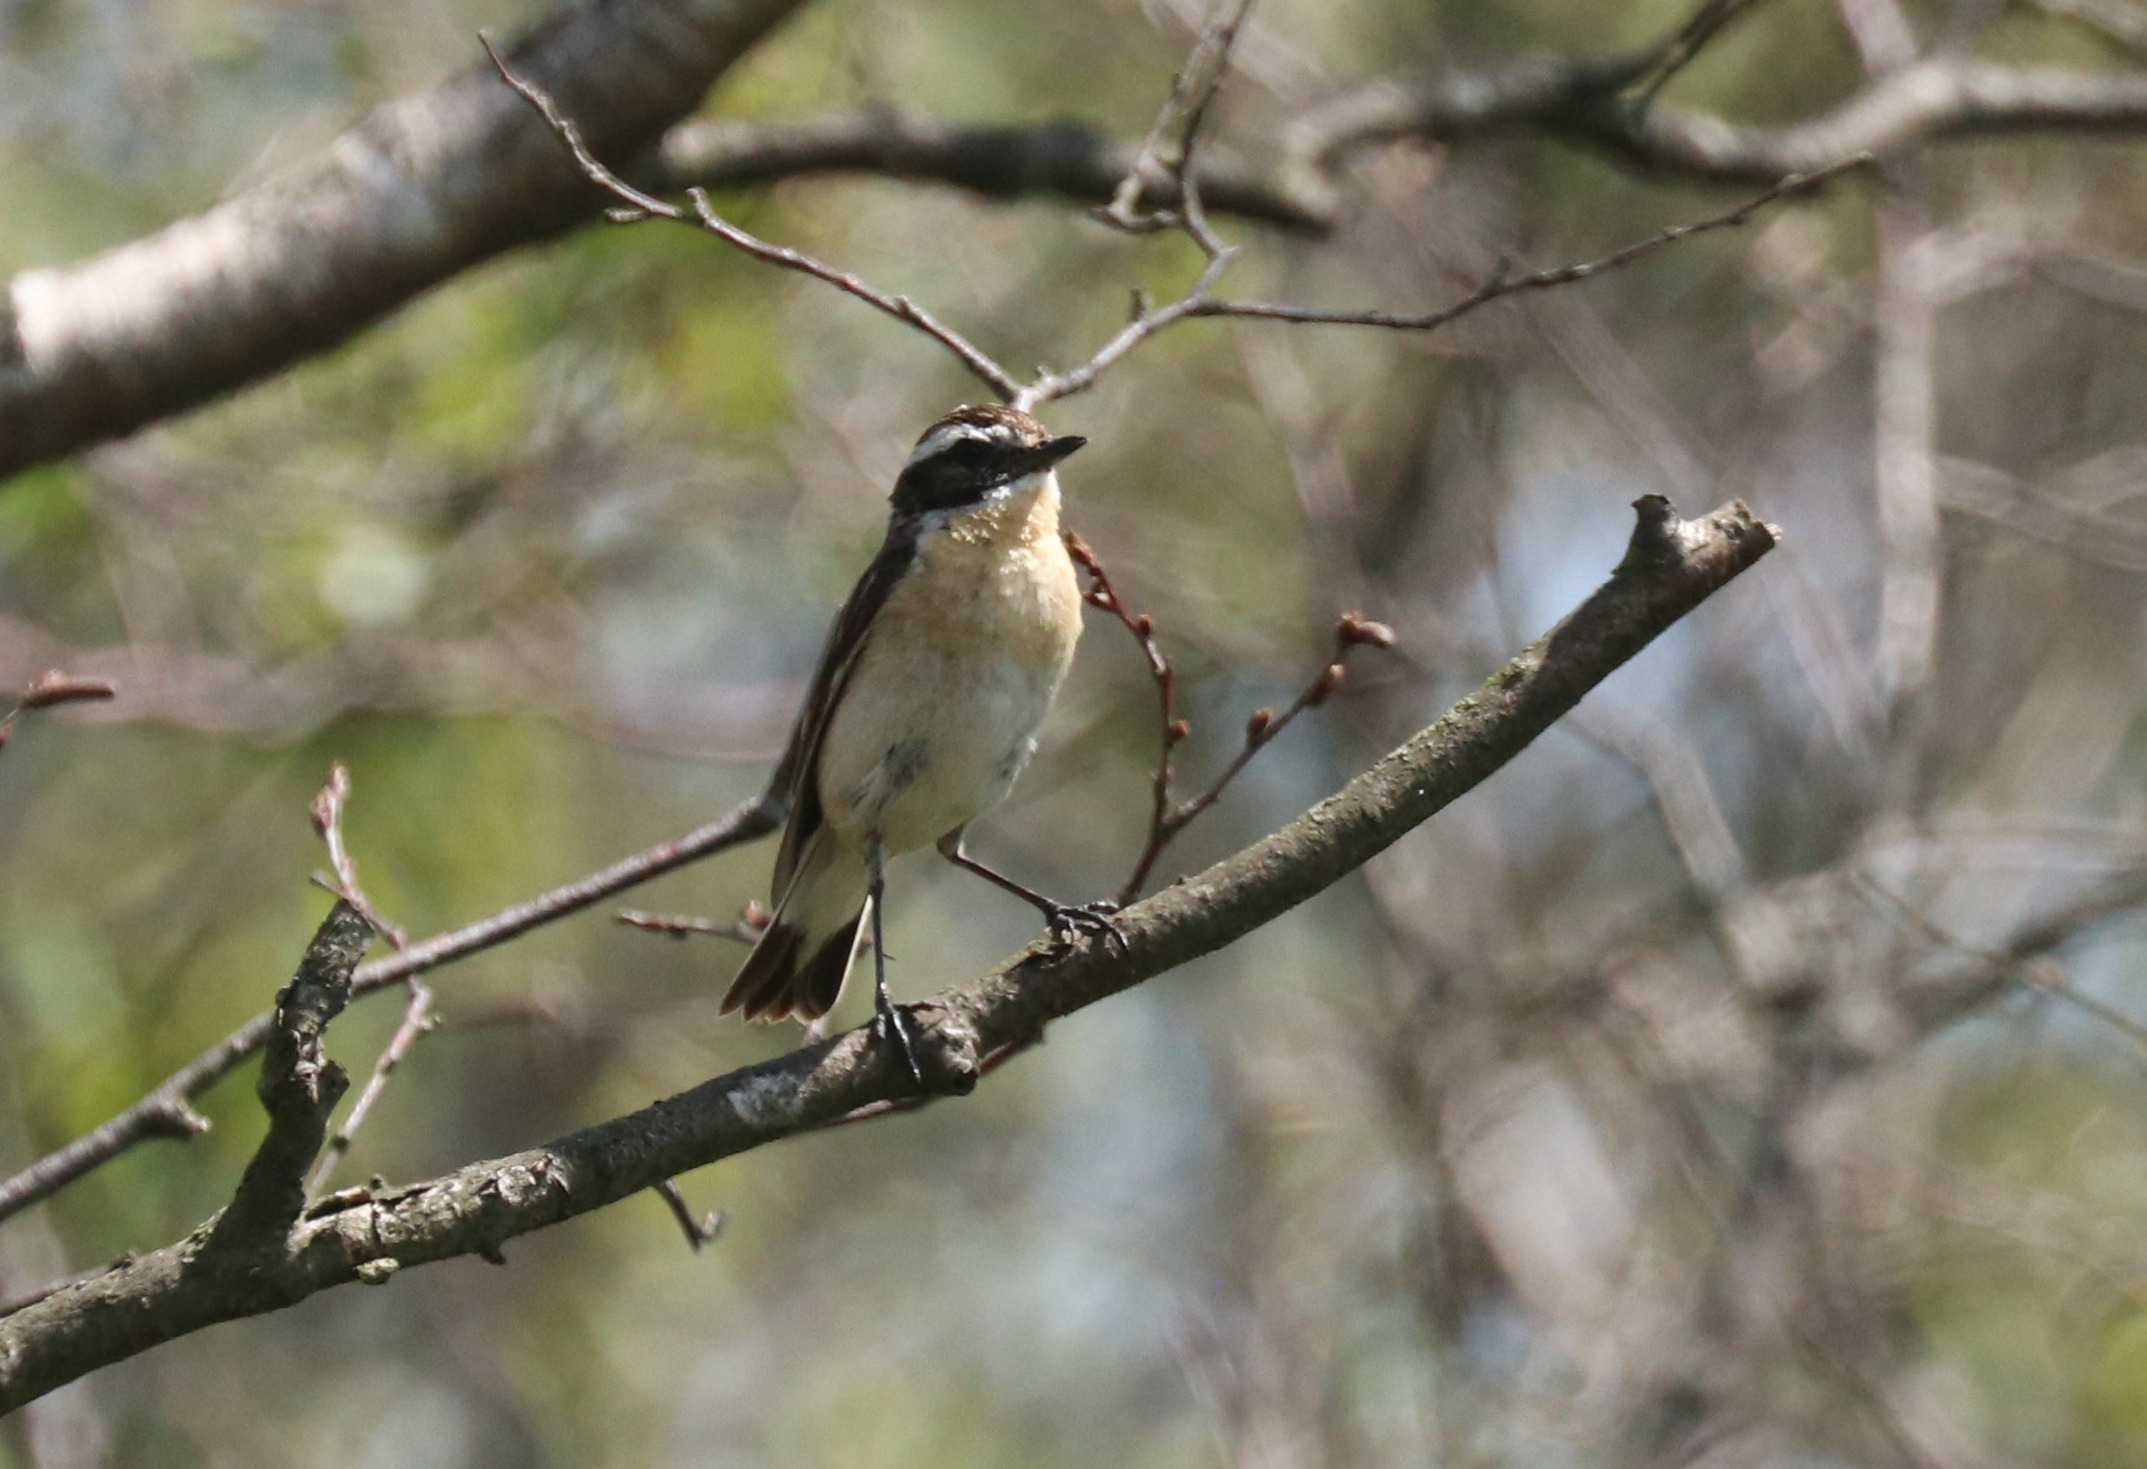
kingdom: Animalia
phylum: Chordata
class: Aves
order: Passeriformes
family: Muscicapidae
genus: Saxicola
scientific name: Saxicola rubetra
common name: Bynkefugl
